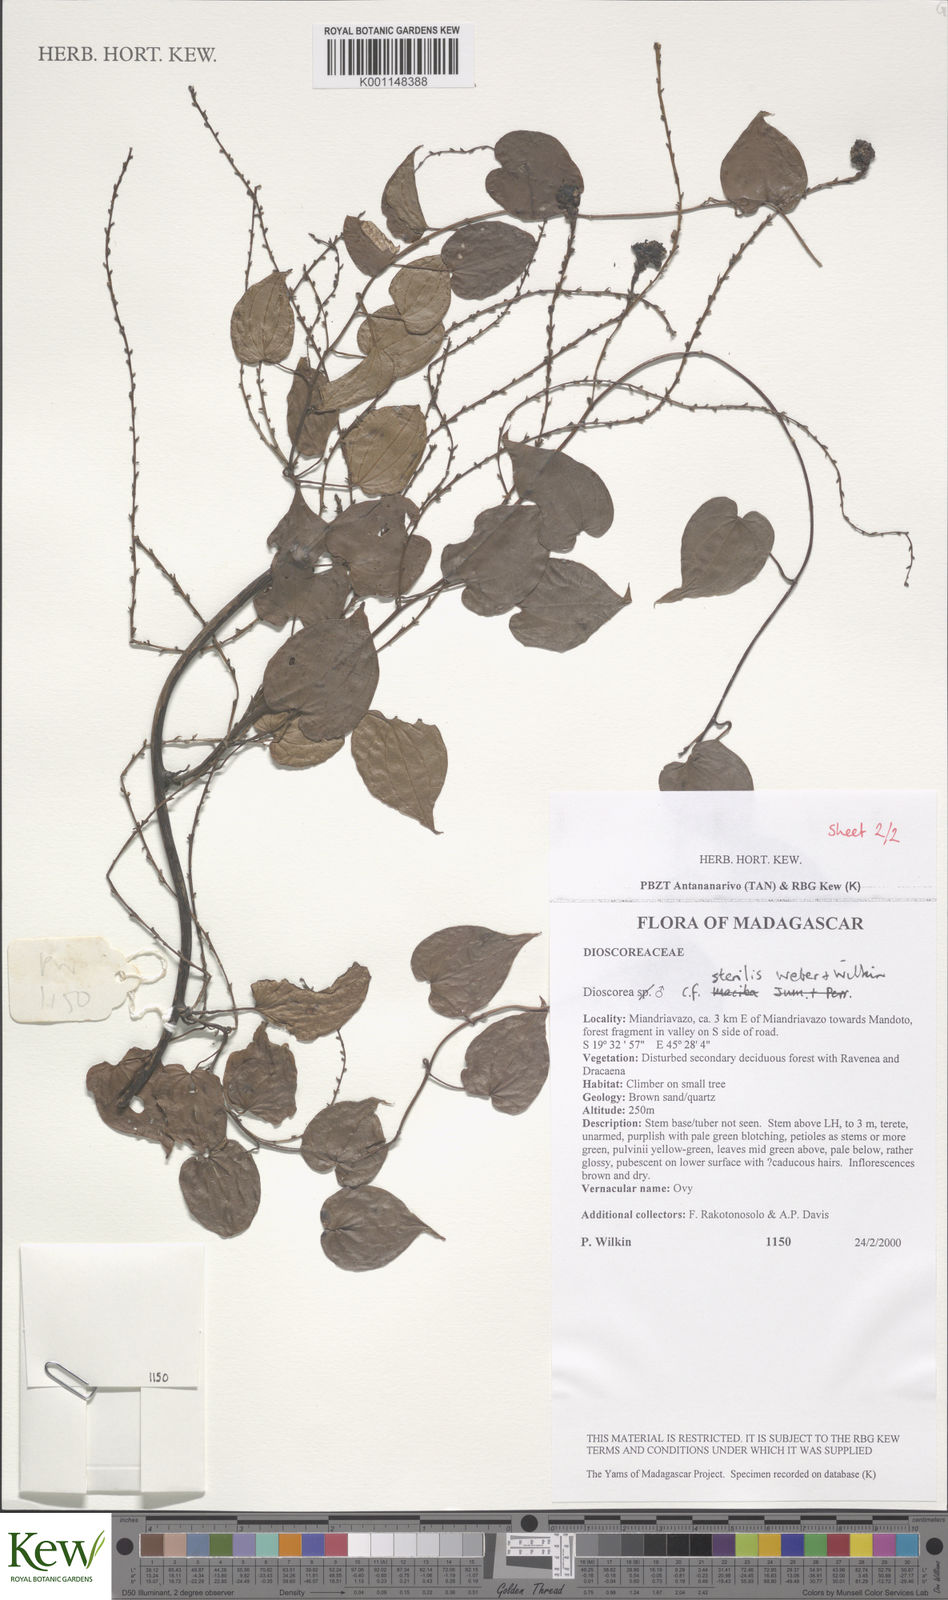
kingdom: Plantae
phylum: Tracheophyta
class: Liliopsida
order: Dioscoreales
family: Dioscoreaceae
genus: Dioscorea
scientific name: Dioscorea sterilis
